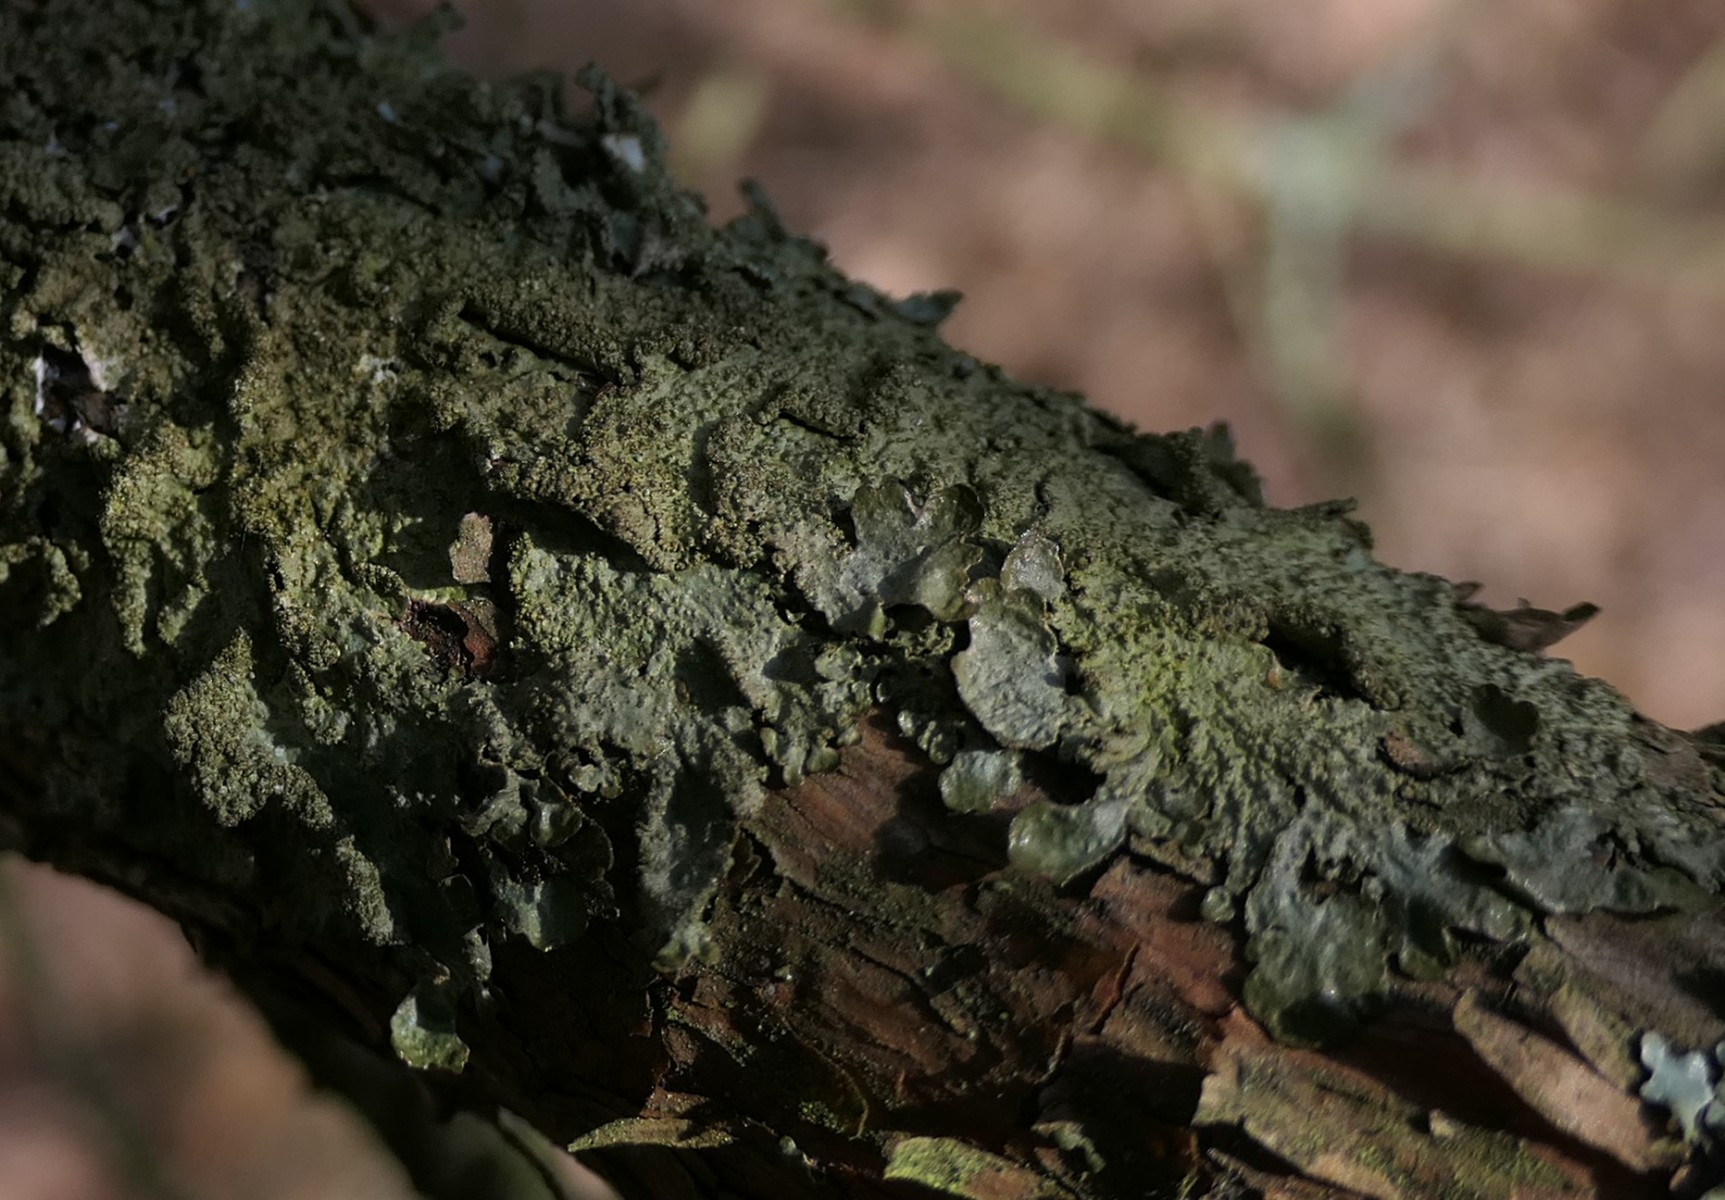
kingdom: Fungi
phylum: Ascomycota
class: Lecanoromycetes
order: Lecanorales
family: Parmeliaceae
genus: Melanelixia
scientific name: Melanelixia subaurifera
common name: guldpudret skållav
